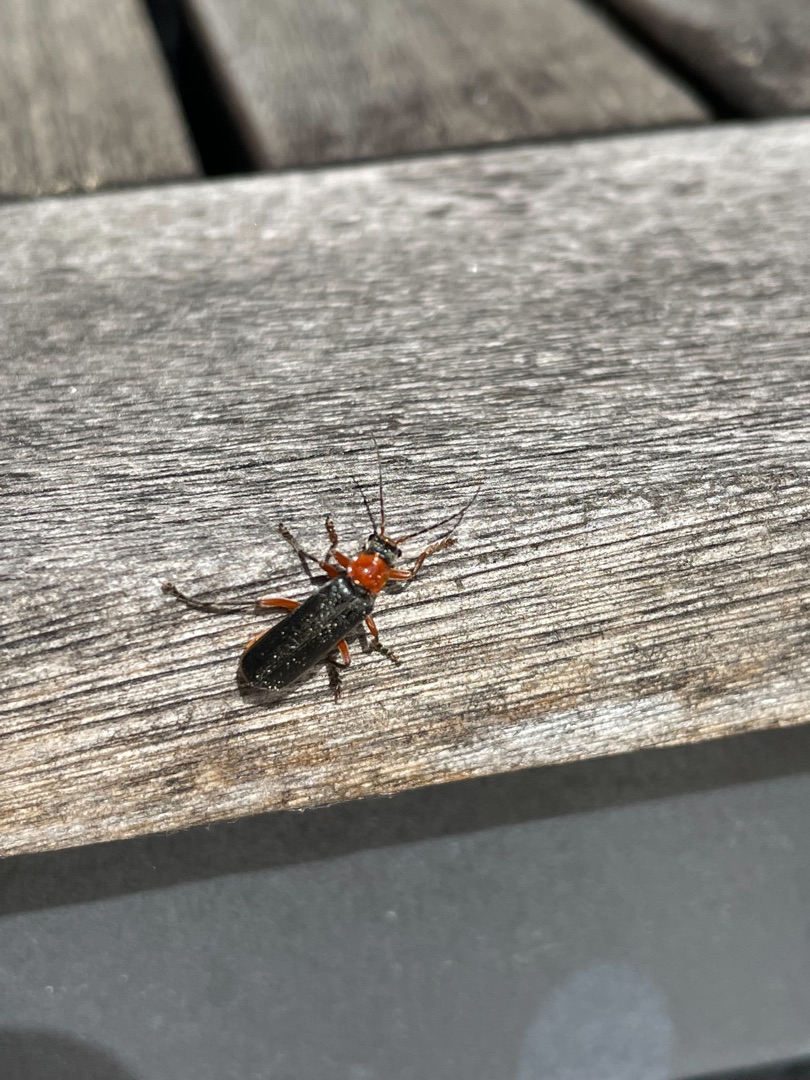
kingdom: Animalia
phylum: Arthropoda
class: Insecta
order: Coleoptera
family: Cantharidae
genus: Cantharis
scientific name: Cantharis pellucida
